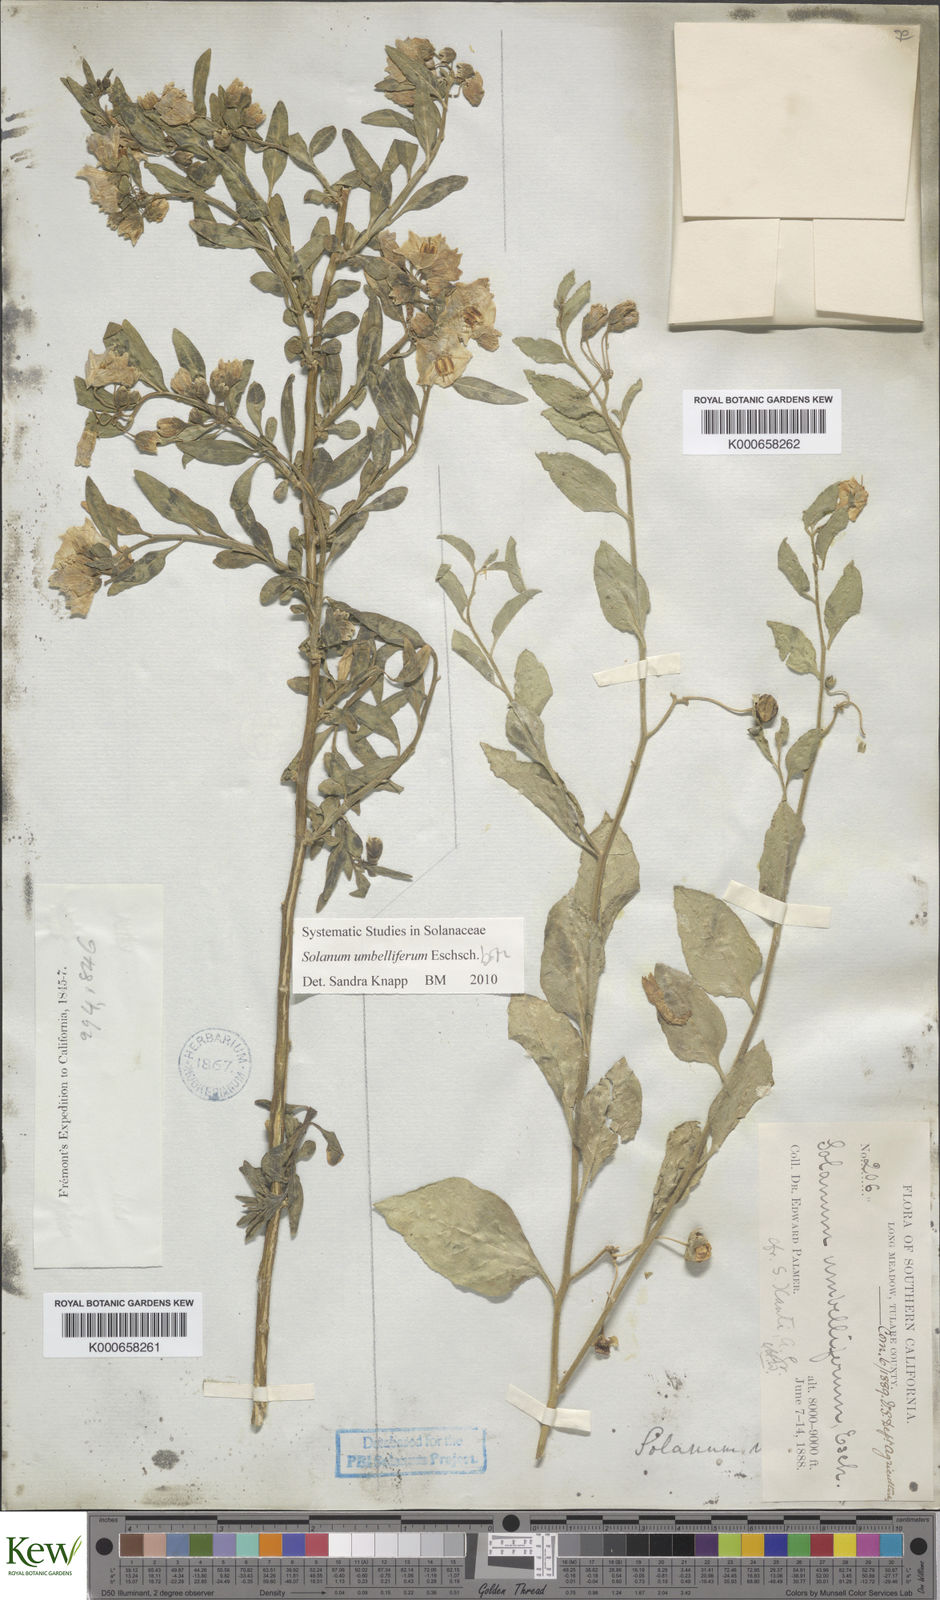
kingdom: Plantae
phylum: Tracheophyta
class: Magnoliopsida
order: Solanales
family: Solanaceae
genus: Solanum
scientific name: Solanum umbelliferum
